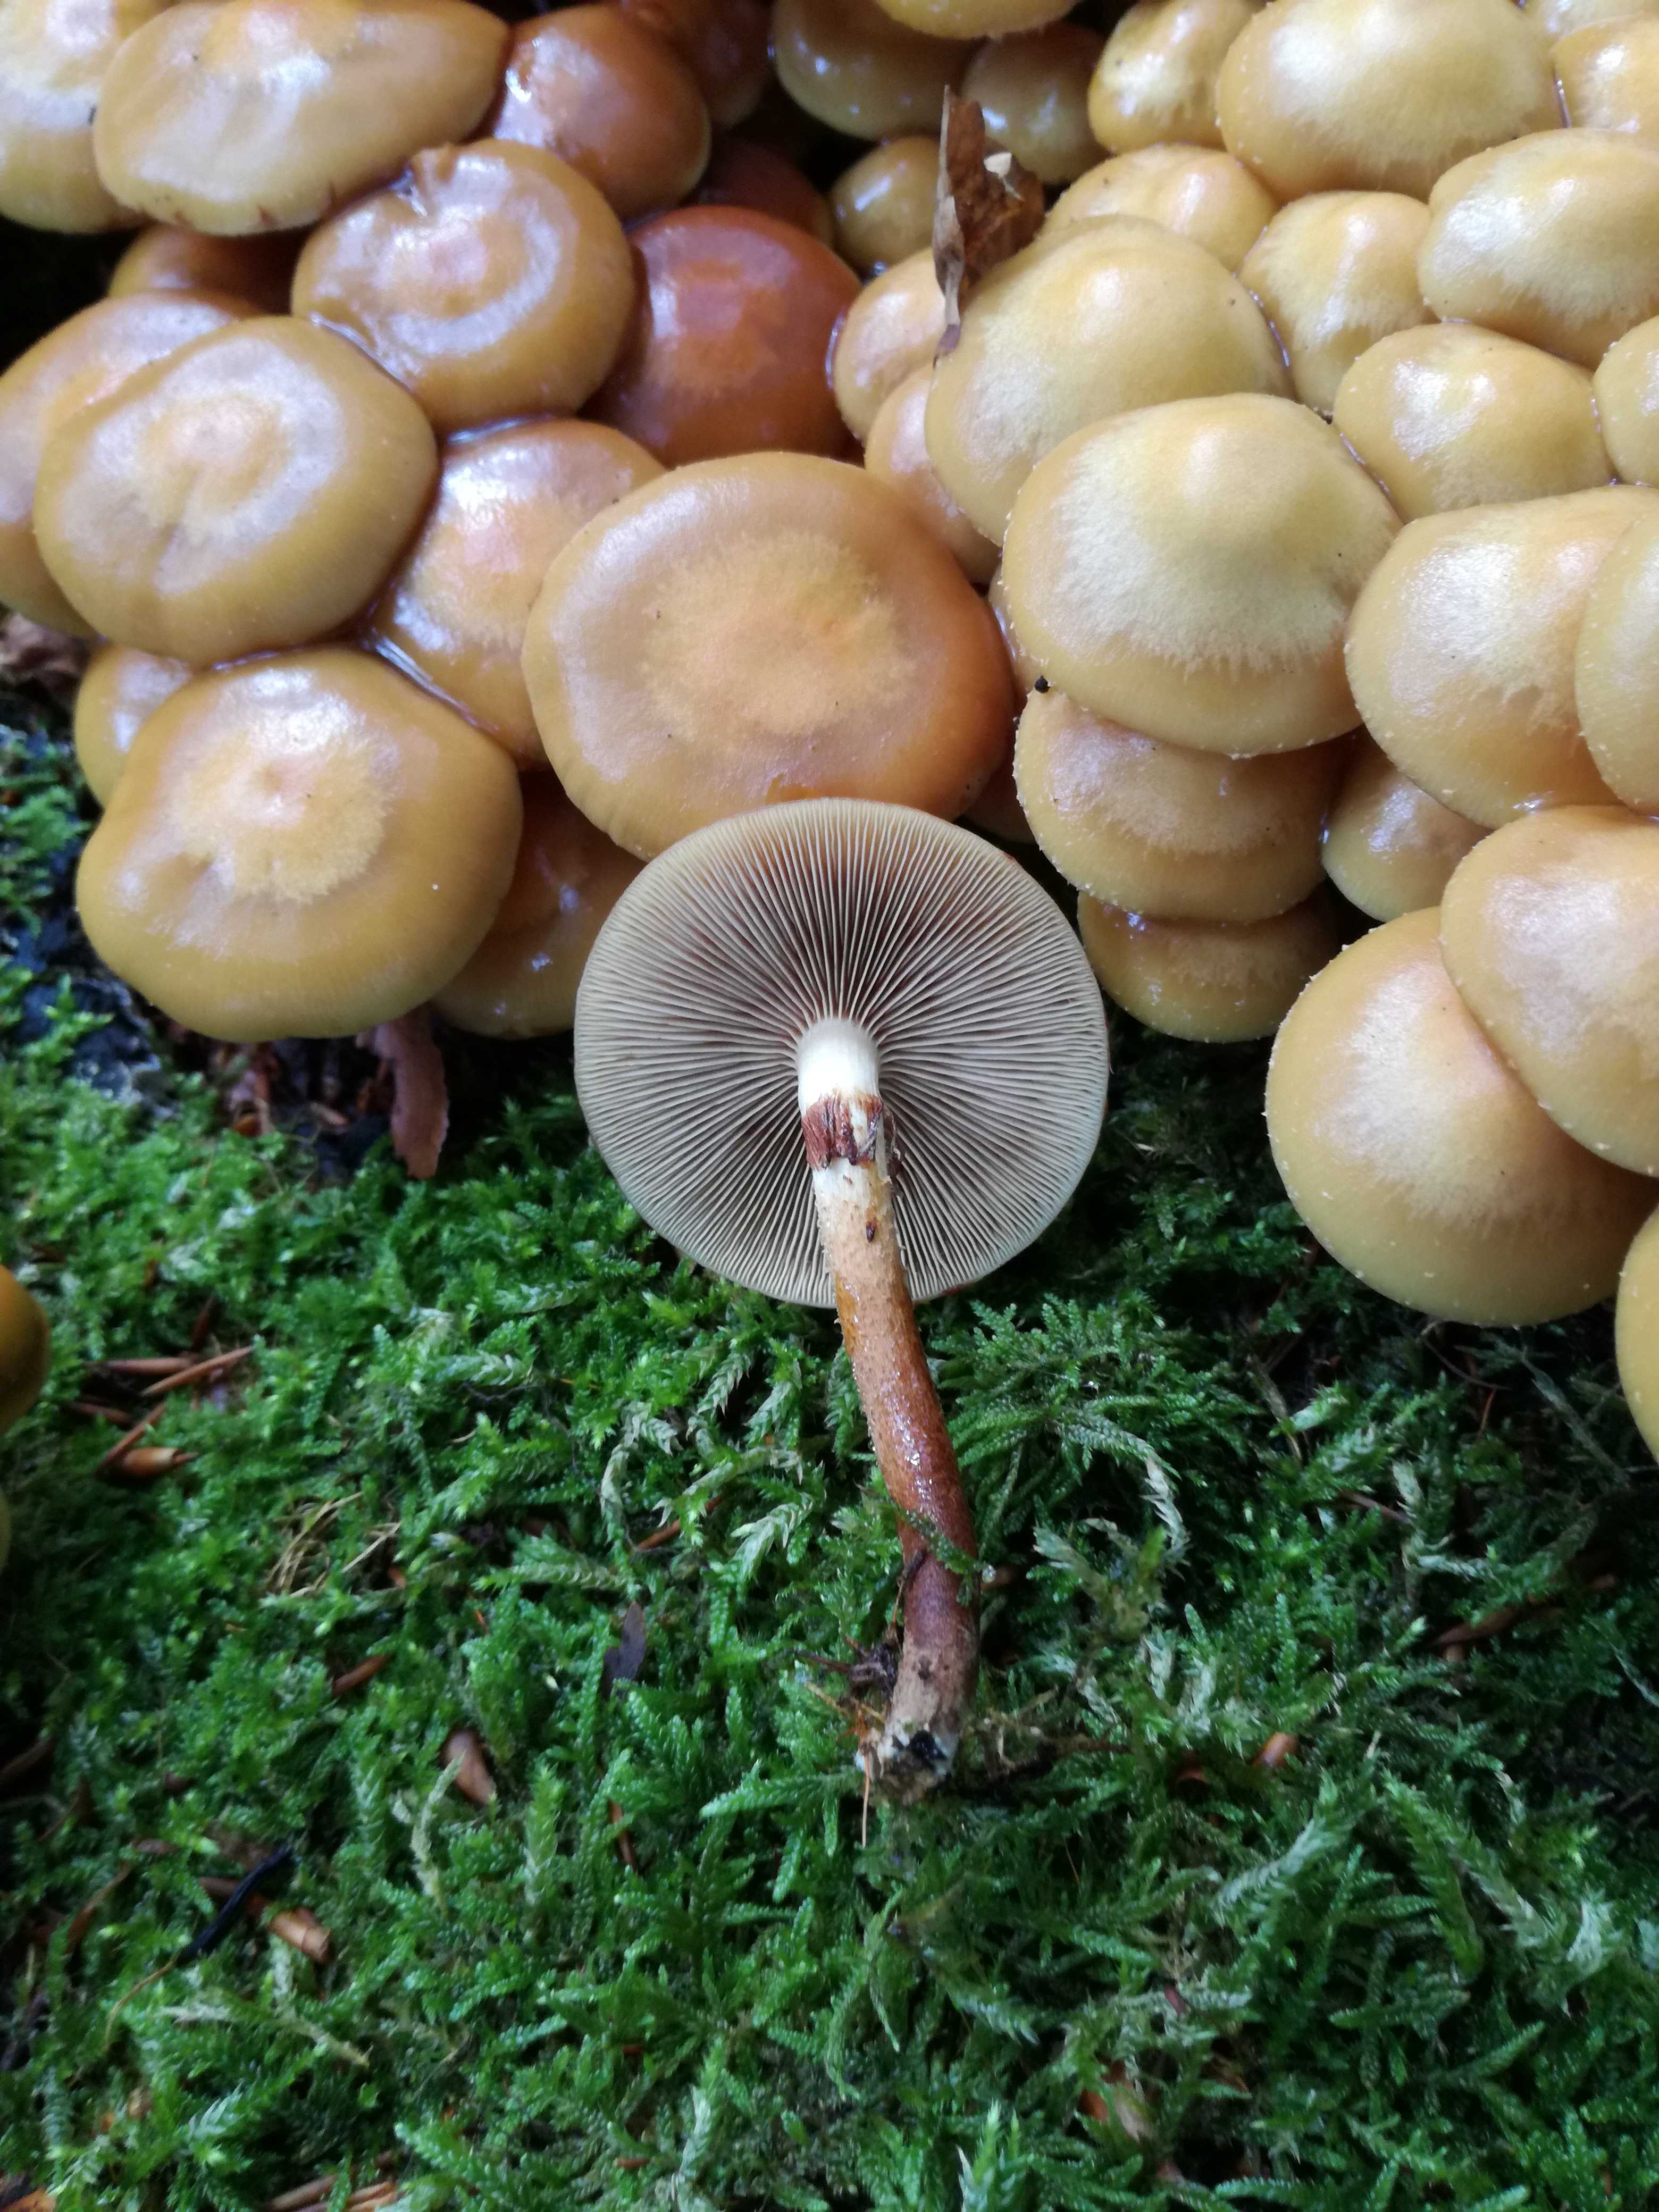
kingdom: Fungi
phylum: Basidiomycota
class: Agaricomycetes
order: Agaricales
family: Strophariaceae
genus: Kuehneromyces
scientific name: Kuehneromyces mutabilis
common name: foranderlig skælhat
